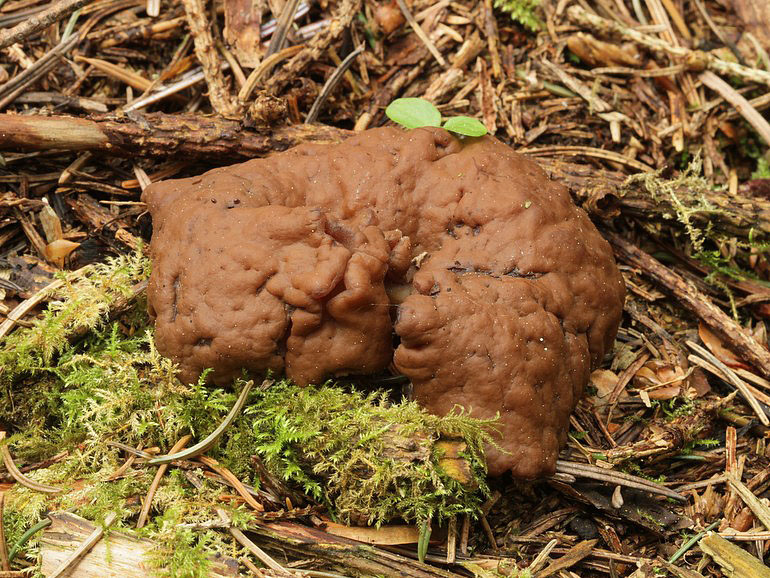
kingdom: Fungi
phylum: Ascomycota
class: Pezizomycetes
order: Pezizales
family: Discinaceae
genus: Discina
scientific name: Discina ancilis
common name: udbredt stenmorkel
